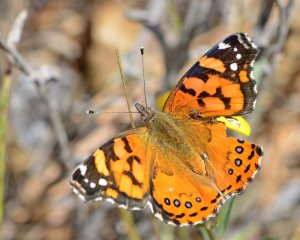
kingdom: Animalia
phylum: Arthropoda
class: Insecta
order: Lepidoptera
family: Nymphalidae
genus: Vanessa
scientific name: Vanessa annabella
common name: West Coast Lady
